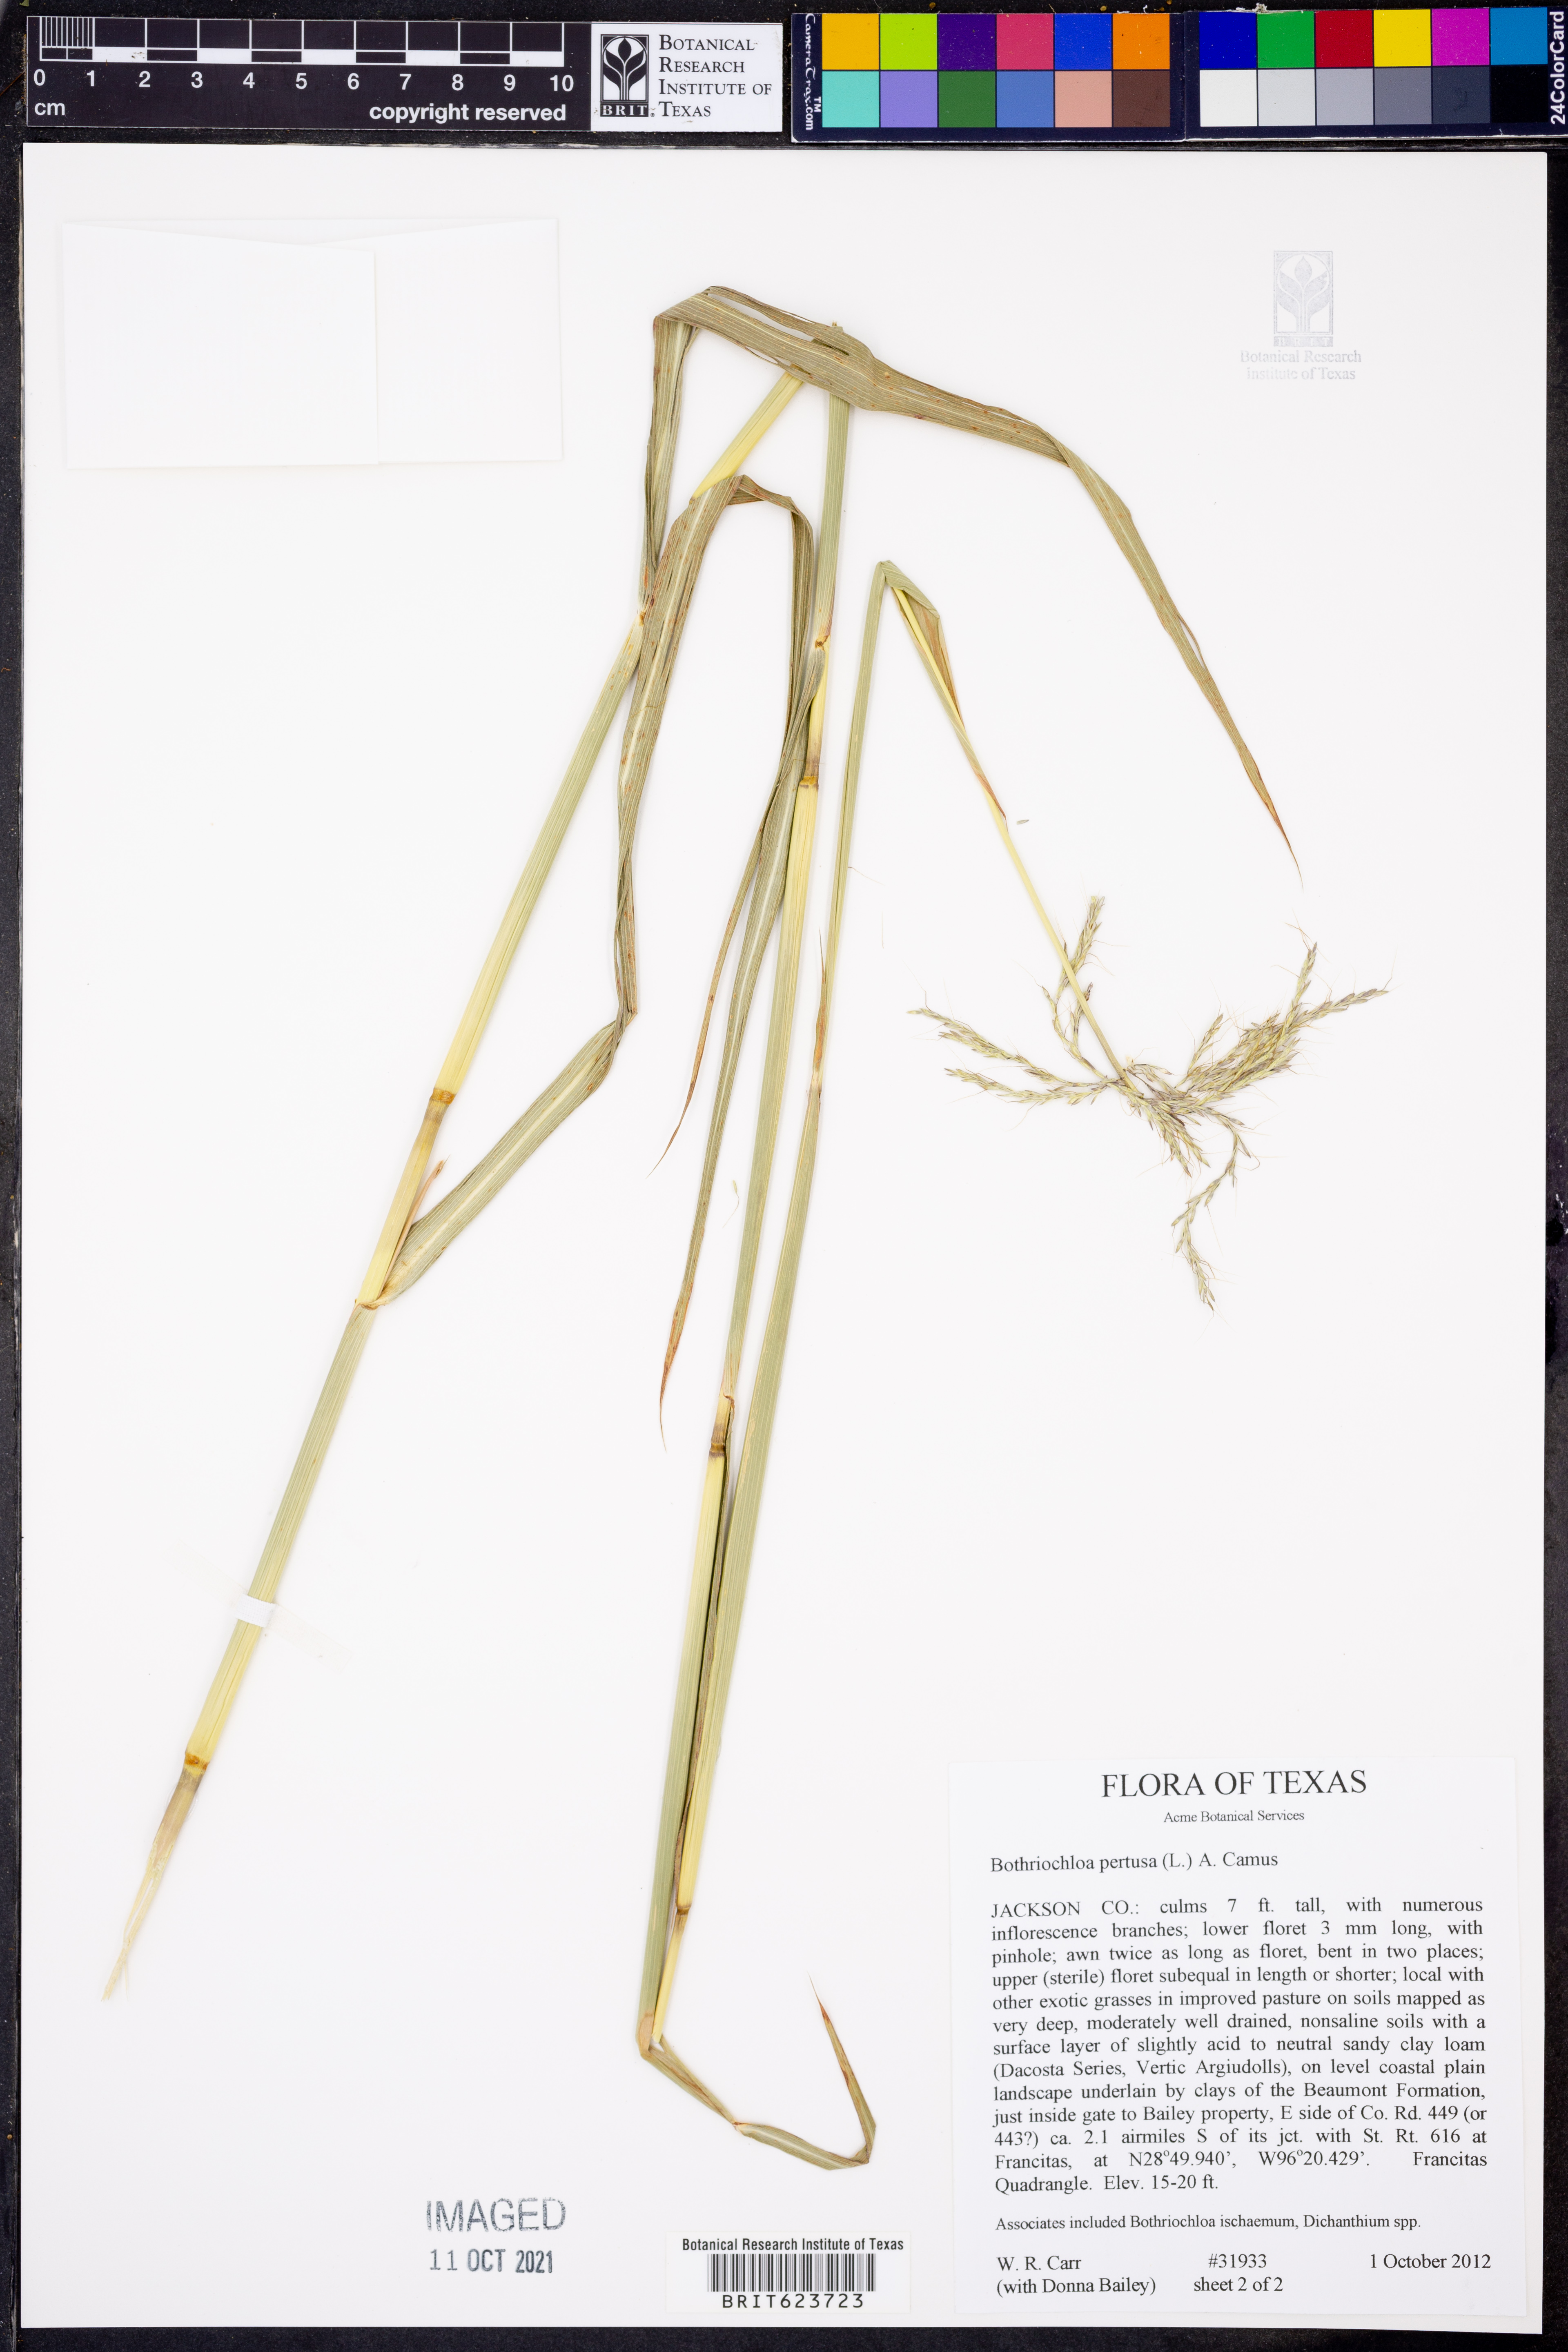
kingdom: Plantae
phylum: Tracheophyta
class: Liliopsida
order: Poales
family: Poaceae
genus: Bothriochloa
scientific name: Bothriochloa pertusa
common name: Pitted beardgrass
